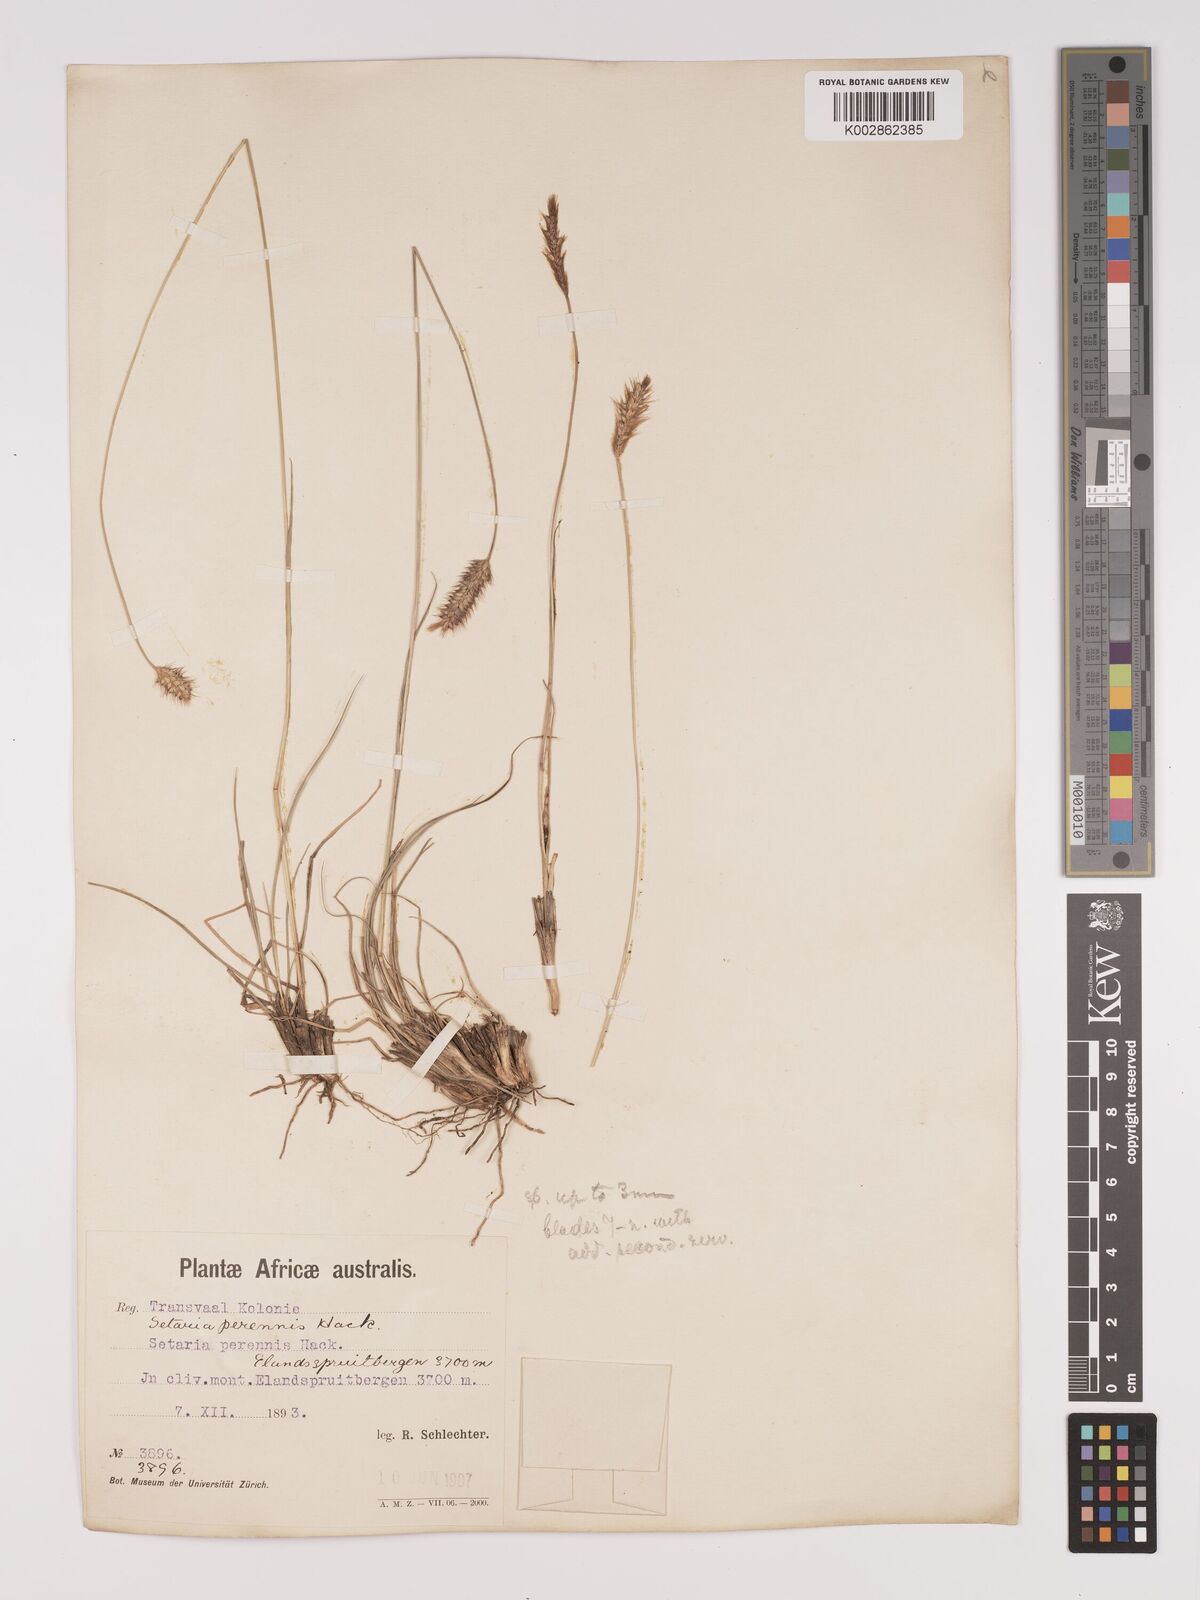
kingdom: Plantae
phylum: Tracheophyta
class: Liliopsida
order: Poales
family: Poaceae
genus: Setaria
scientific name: Setaria sphacelata
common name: African bristlegrass
